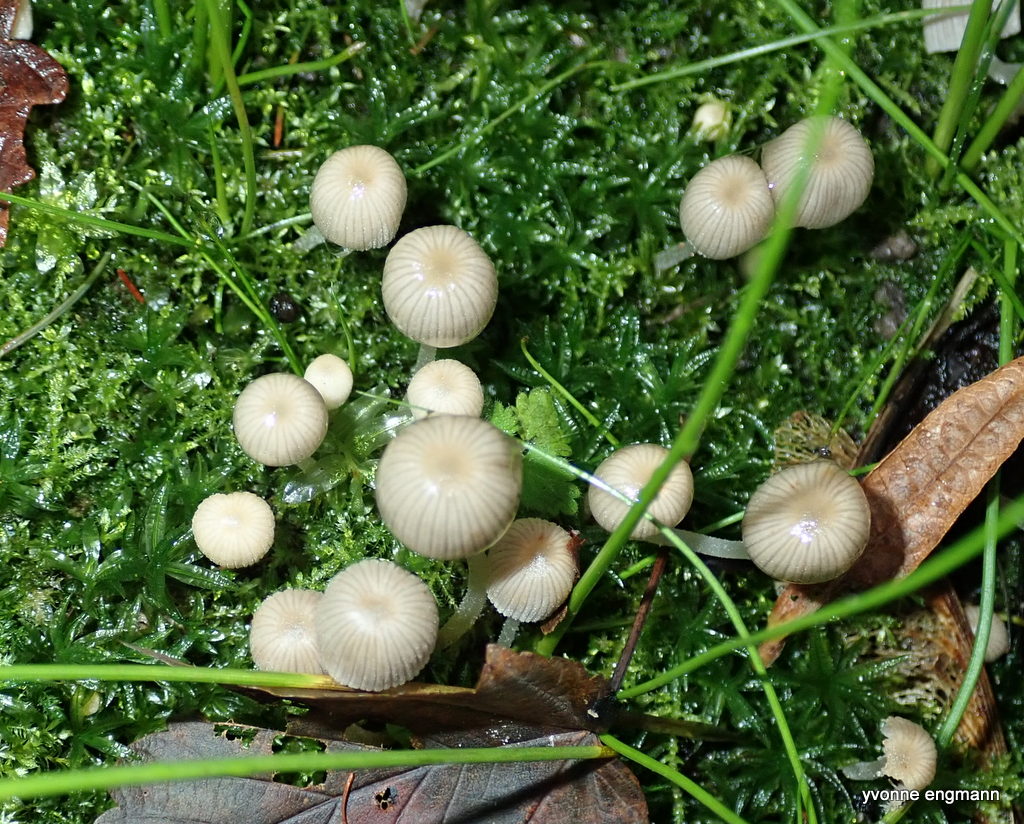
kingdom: Fungi
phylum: Basidiomycota
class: Agaricomycetes
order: Agaricales
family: Psathyrellaceae
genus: Coprinellus
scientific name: Coprinellus disseminatus
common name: bredsået blækhat
